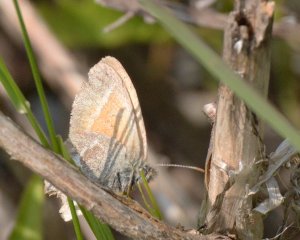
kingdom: Animalia
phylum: Arthropoda
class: Insecta
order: Lepidoptera
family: Nymphalidae
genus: Coenonympha
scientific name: Coenonympha tullia
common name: Large Heath
